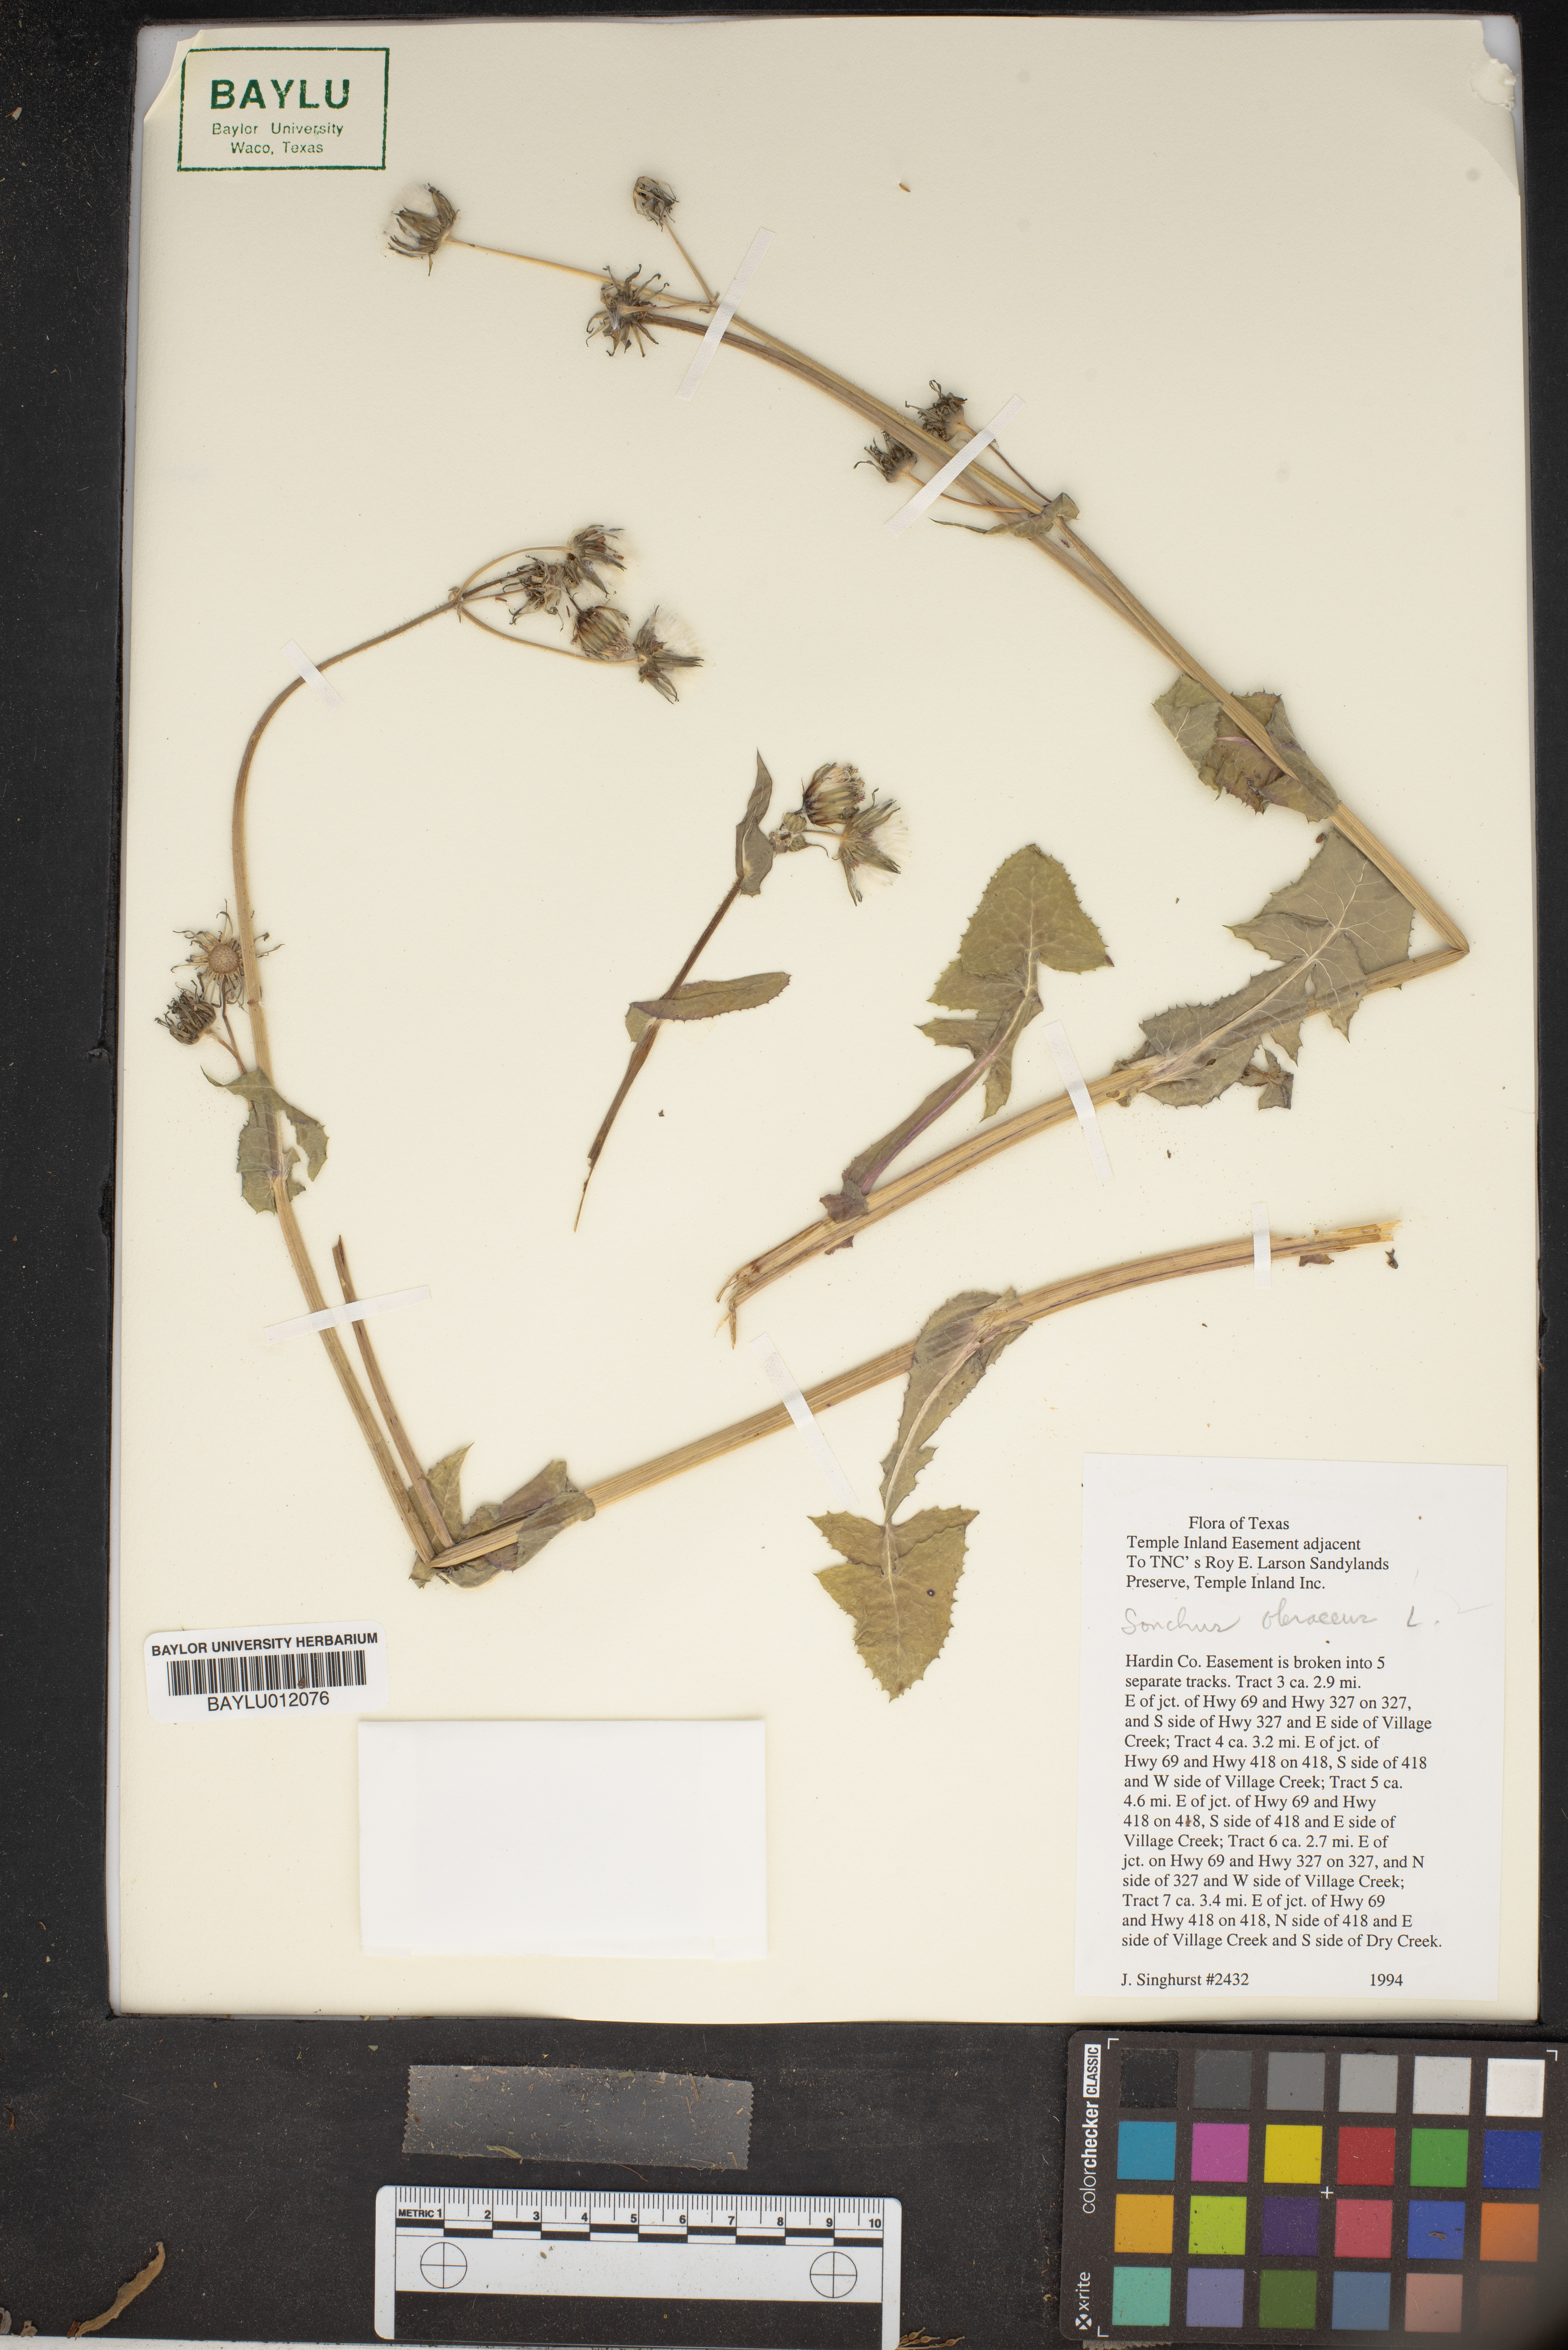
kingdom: Plantae
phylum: Tracheophyta
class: Liliopsida
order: Poales
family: Poaceae
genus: Paspalum
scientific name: Paspalum dilatatum
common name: Dallisgrass
